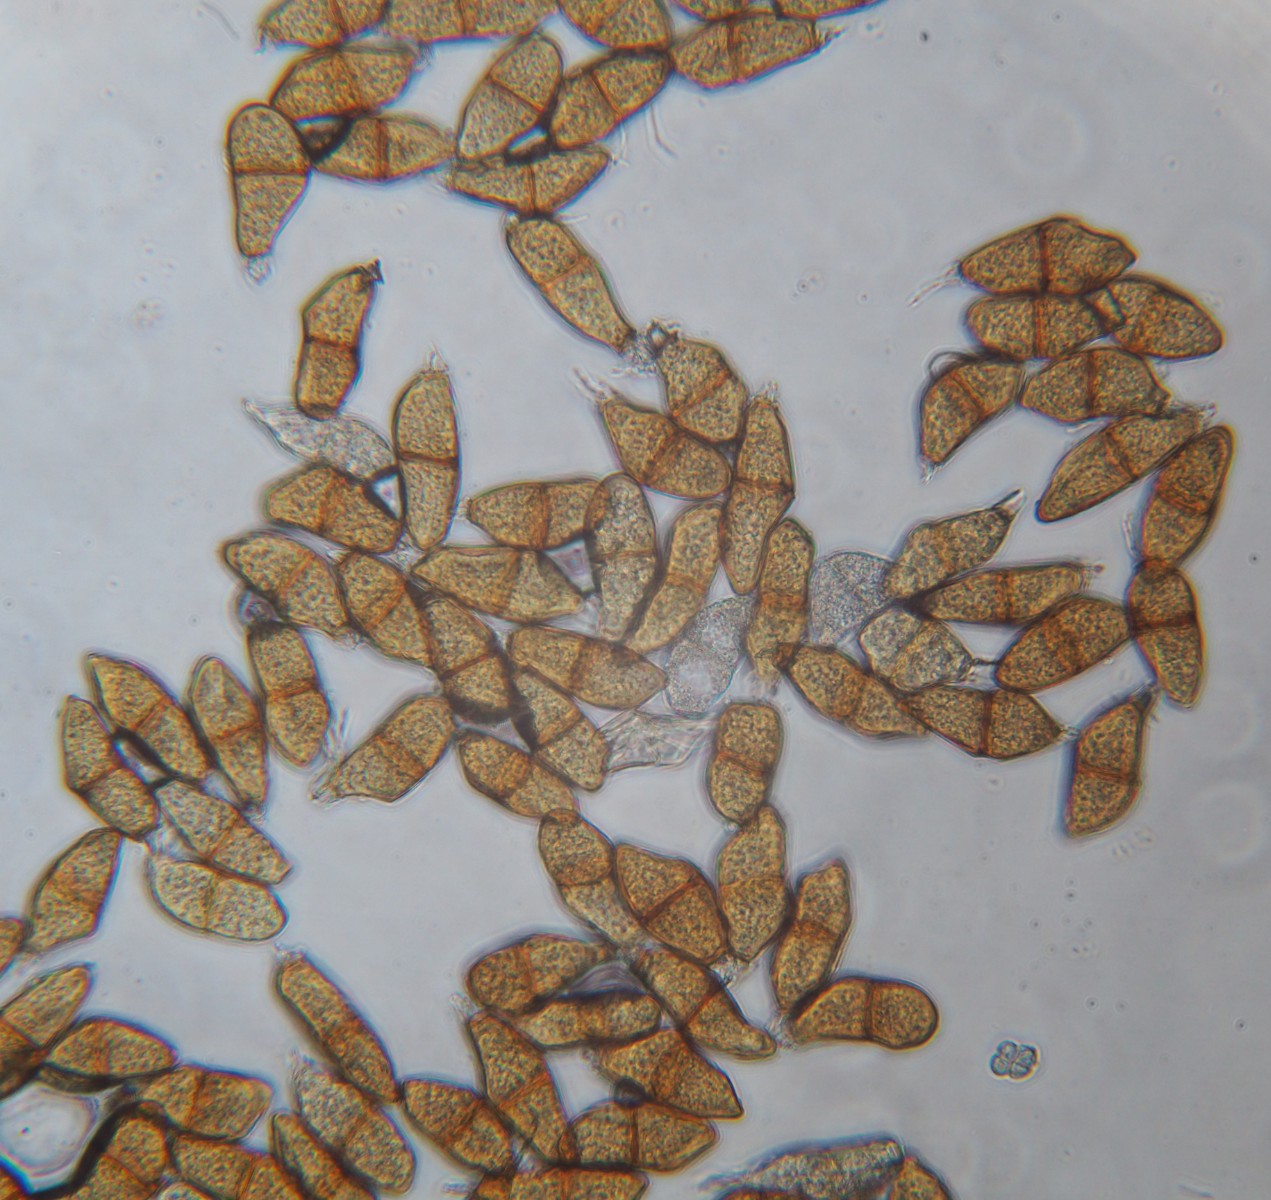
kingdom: Fungi
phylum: Basidiomycota
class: Pucciniomycetes
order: Pucciniales
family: Pucciniaceae
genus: Puccinia
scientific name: Puccinia liliacearum
